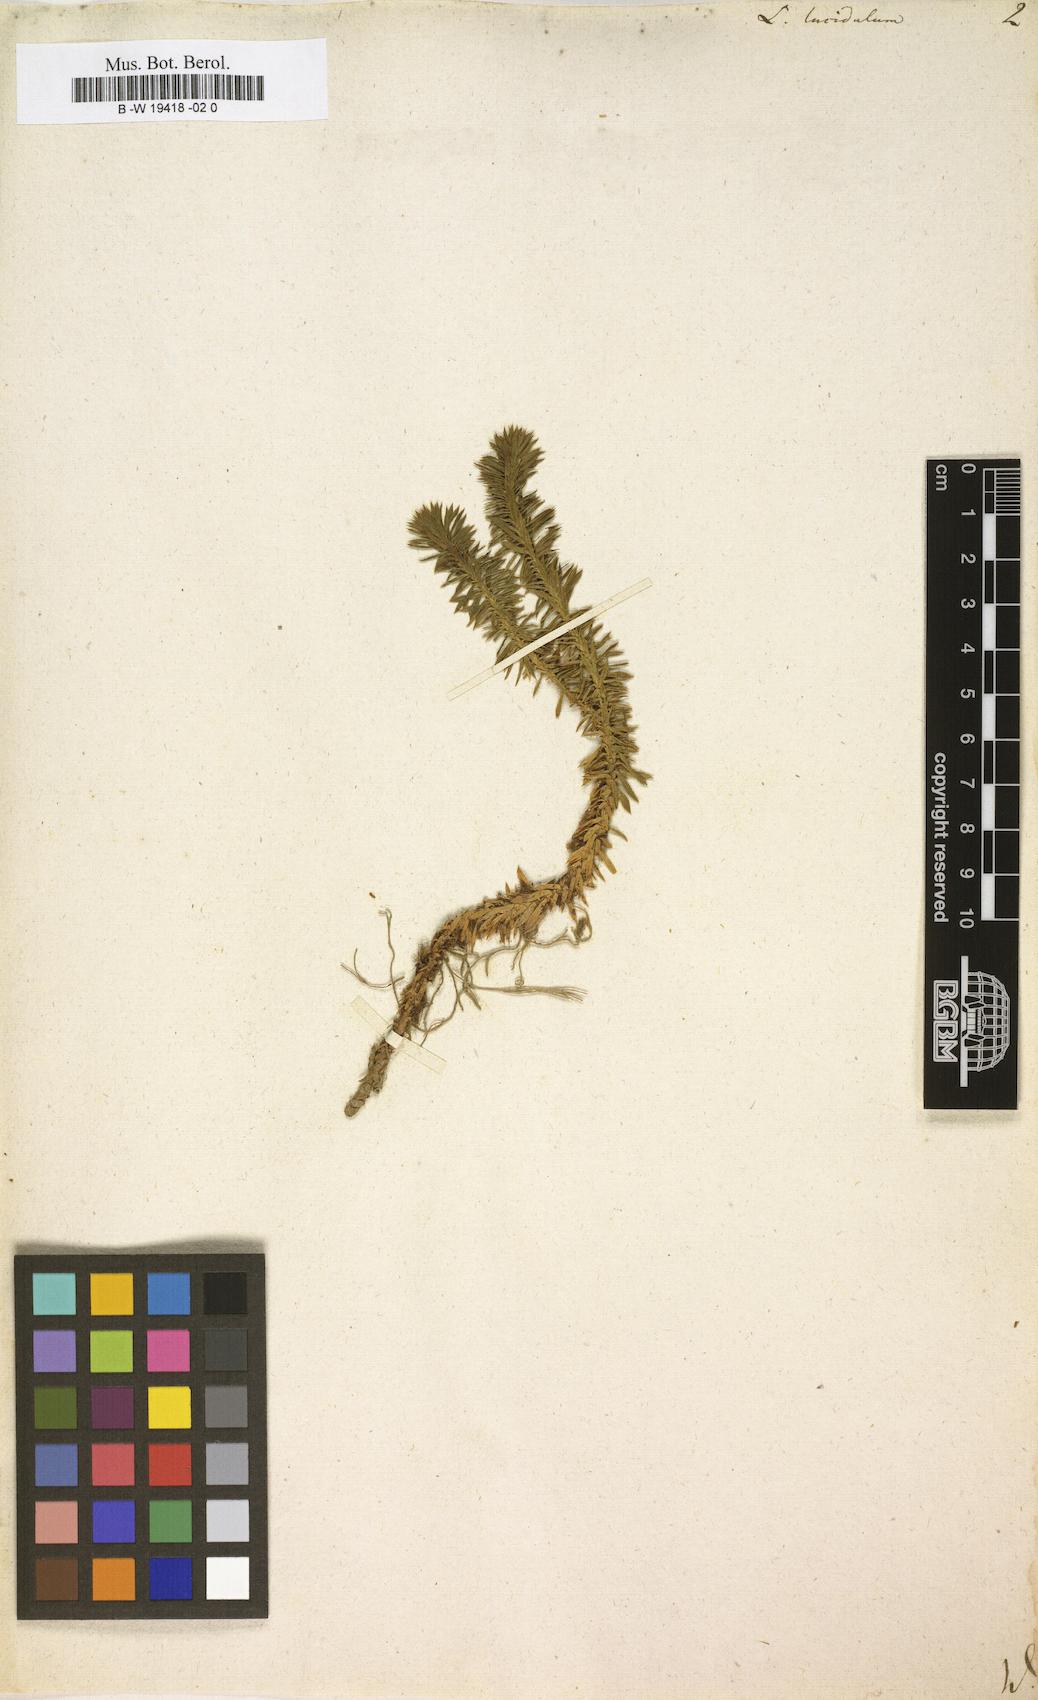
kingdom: Plantae
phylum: Tracheophyta
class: Lycopodiopsida
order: Lycopodiales
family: Lycopodiaceae
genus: Huperzia
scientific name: Huperzia
